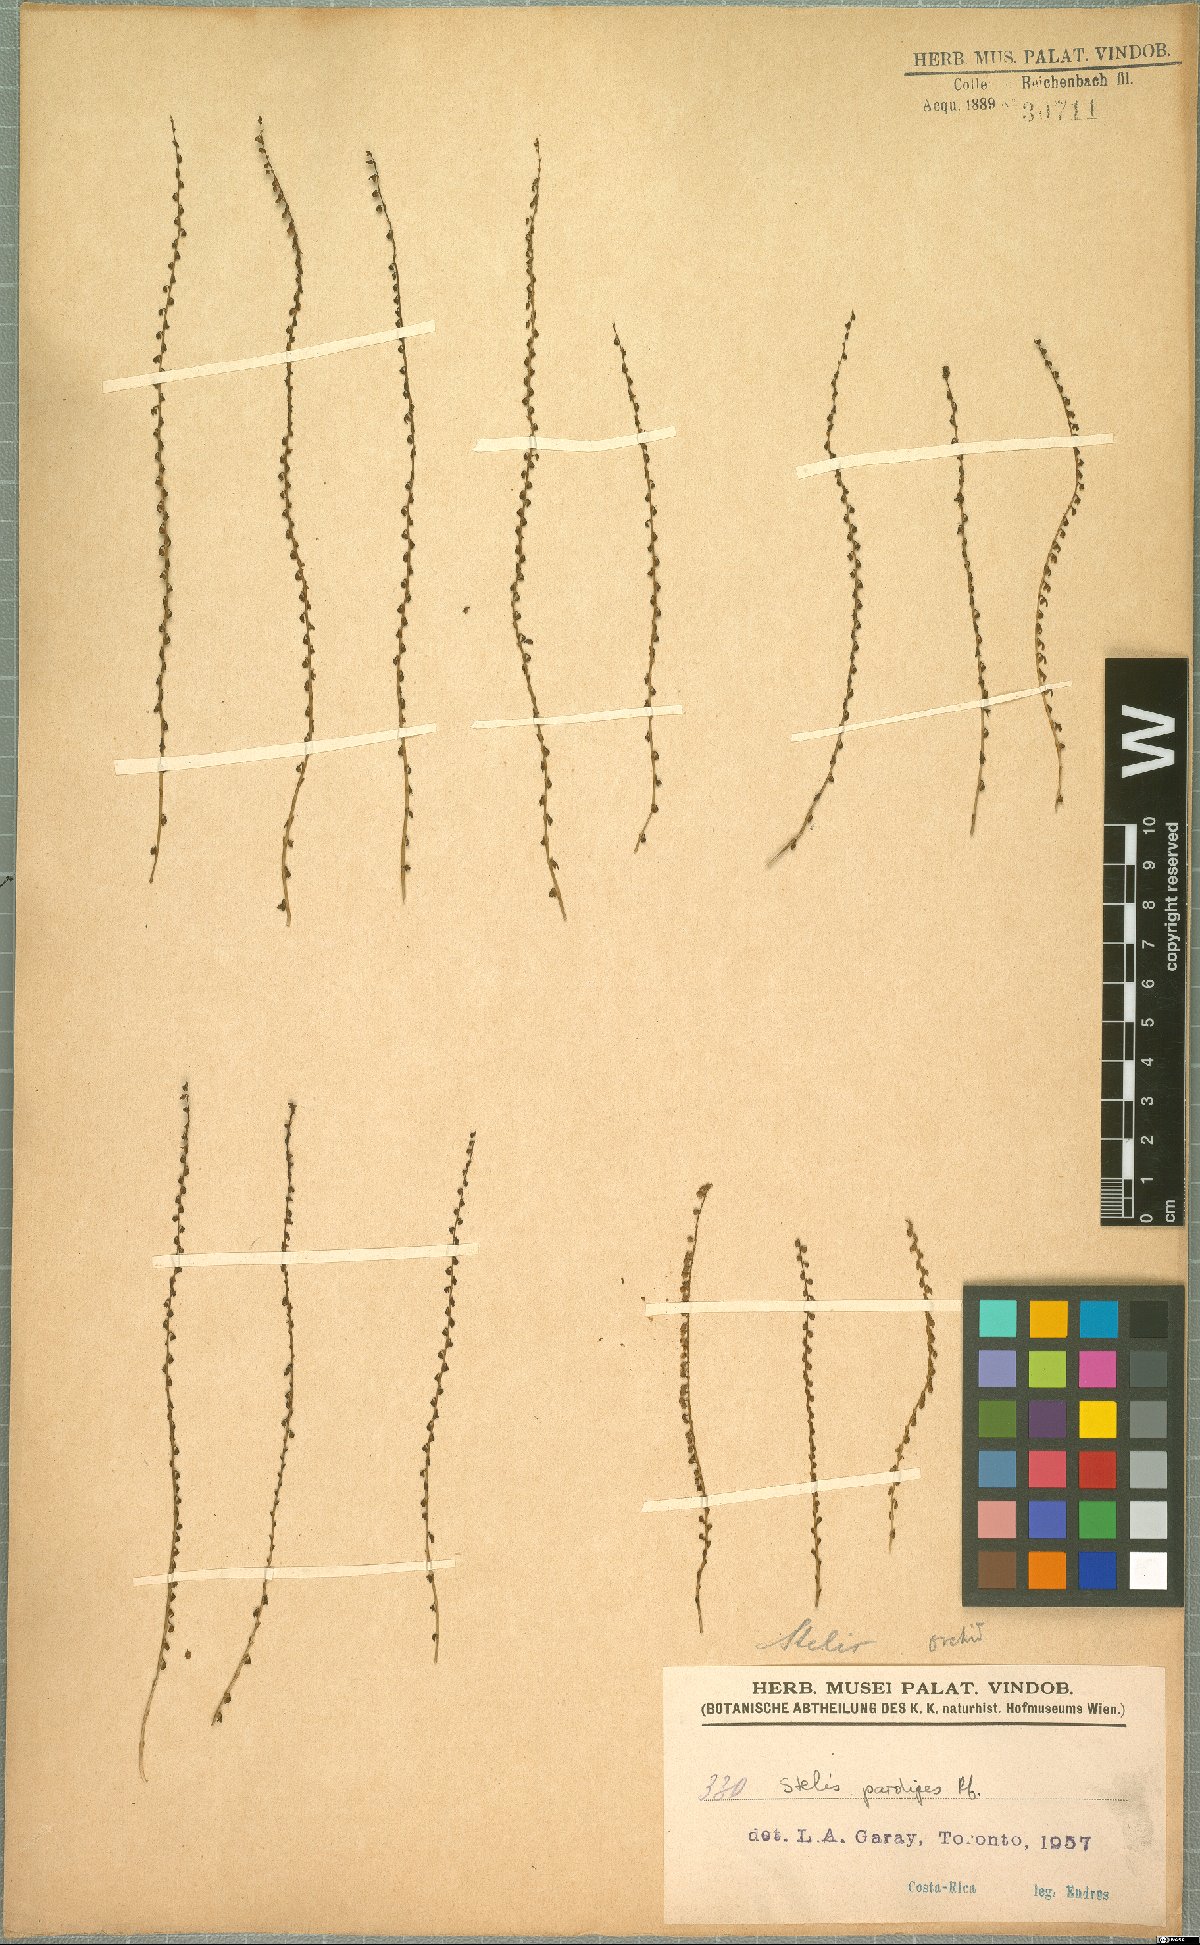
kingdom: Plantae
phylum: Tracheophyta
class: Liliopsida
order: Asparagales
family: Orchidaceae
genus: Stelis
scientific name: Stelis pardipes
